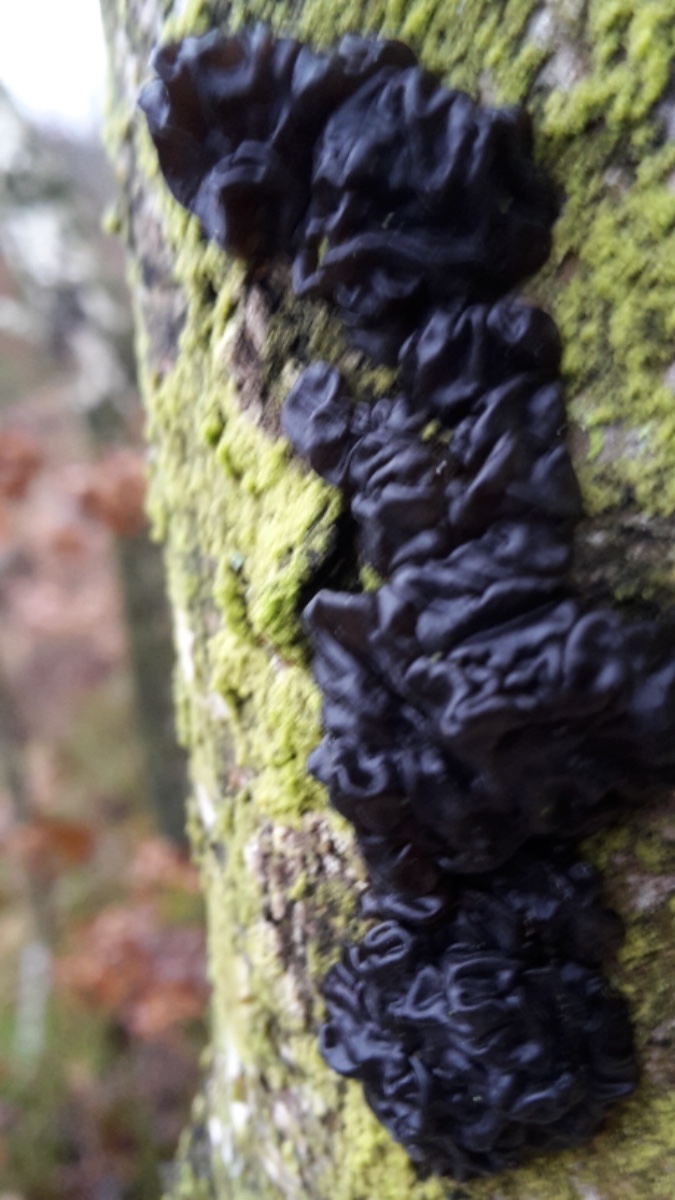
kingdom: Fungi
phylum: Basidiomycota
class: Agaricomycetes
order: Auriculariales
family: Auriculariaceae
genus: Exidia
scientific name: Exidia nigricans
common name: almindelig bævretop
